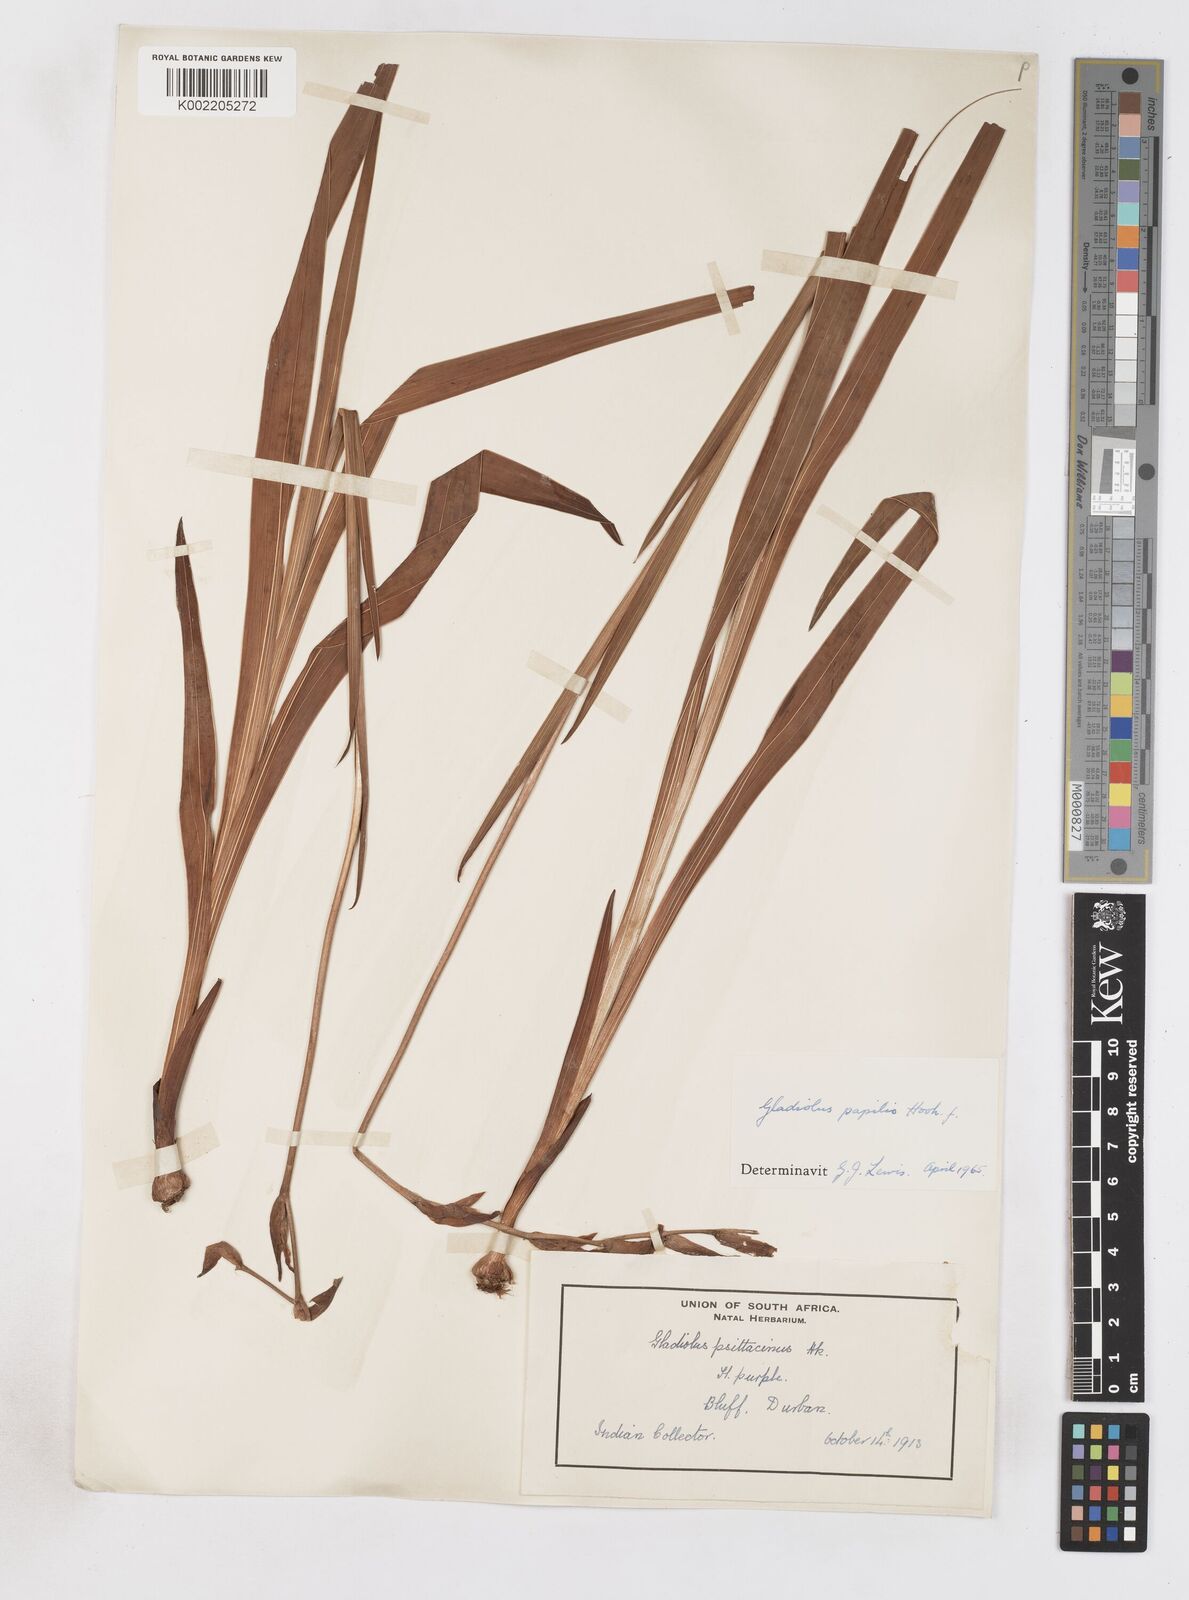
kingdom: Plantae
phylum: Tracheophyta
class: Liliopsida
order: Asparagales
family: Iridaceae
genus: Gladiolus
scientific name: Gladiolus papilio
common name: Goldblotch gladiolus
